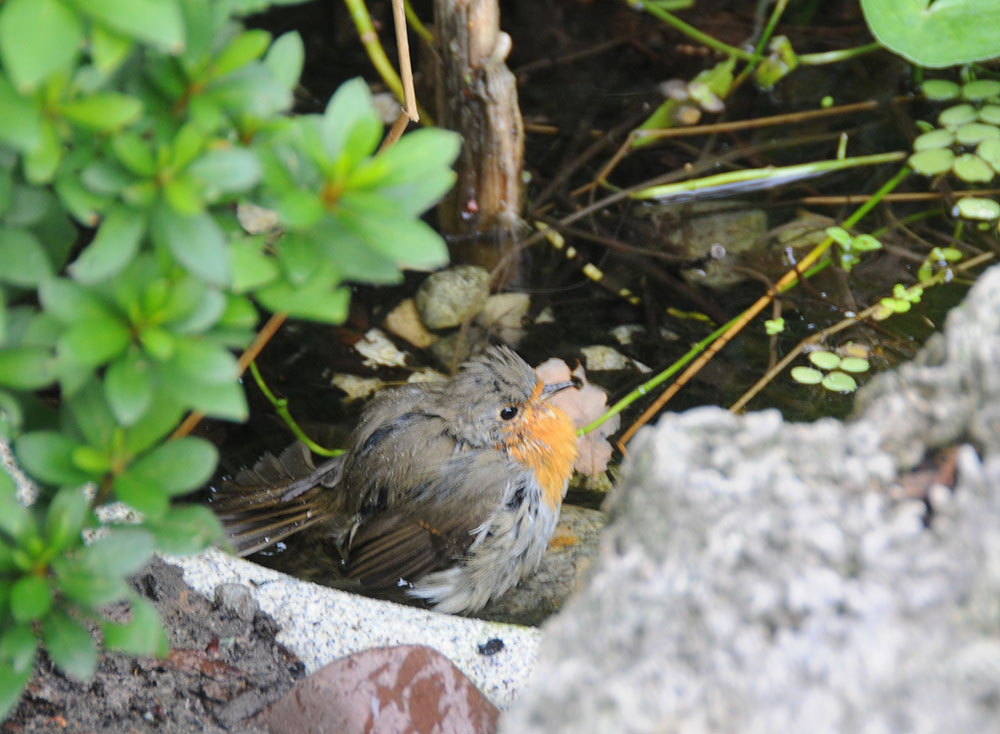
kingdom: Animalia
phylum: Chordata
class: Aves
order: Passeriformes
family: Muscicapidae
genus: Erithacus
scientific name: Erithacus rubecula
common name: European robin
